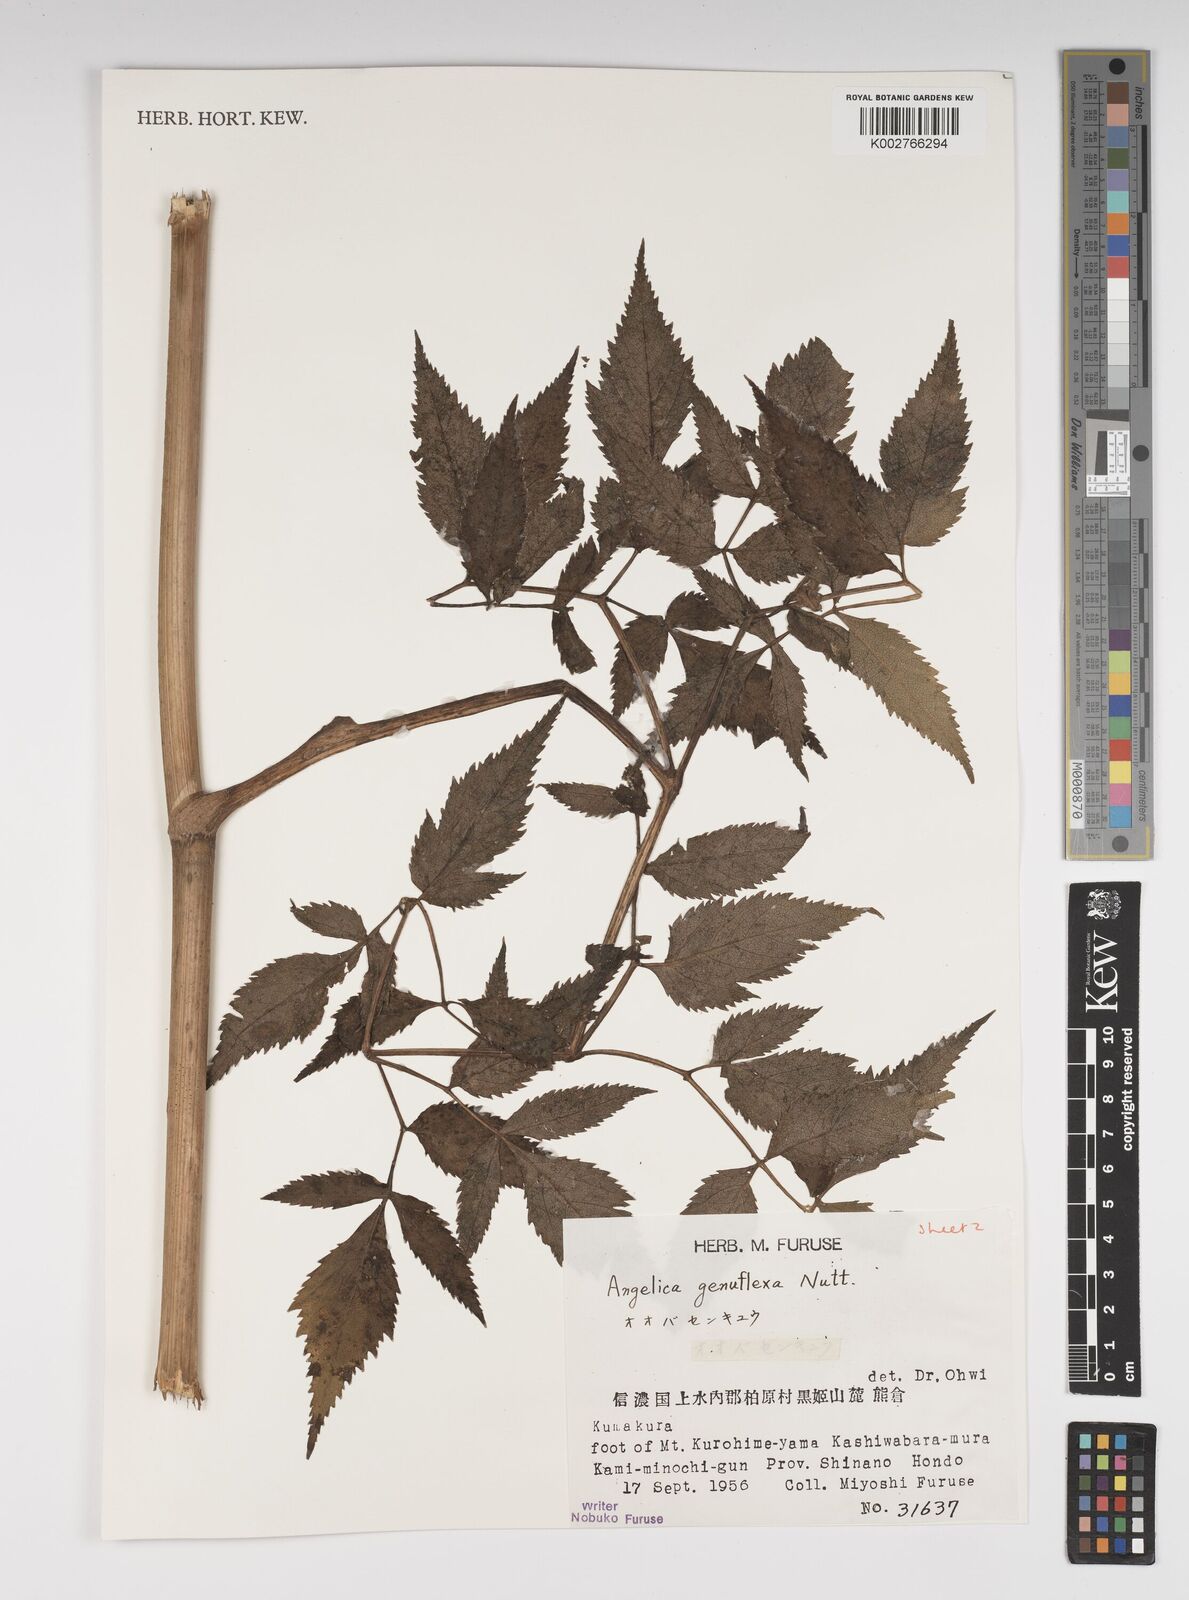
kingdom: Plantae
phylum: Tracheophyta
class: Magnoliopsida
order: Apiales
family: Apiaceae
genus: Angelica
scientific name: Angelica genuflexa
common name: Kneeling angelica
